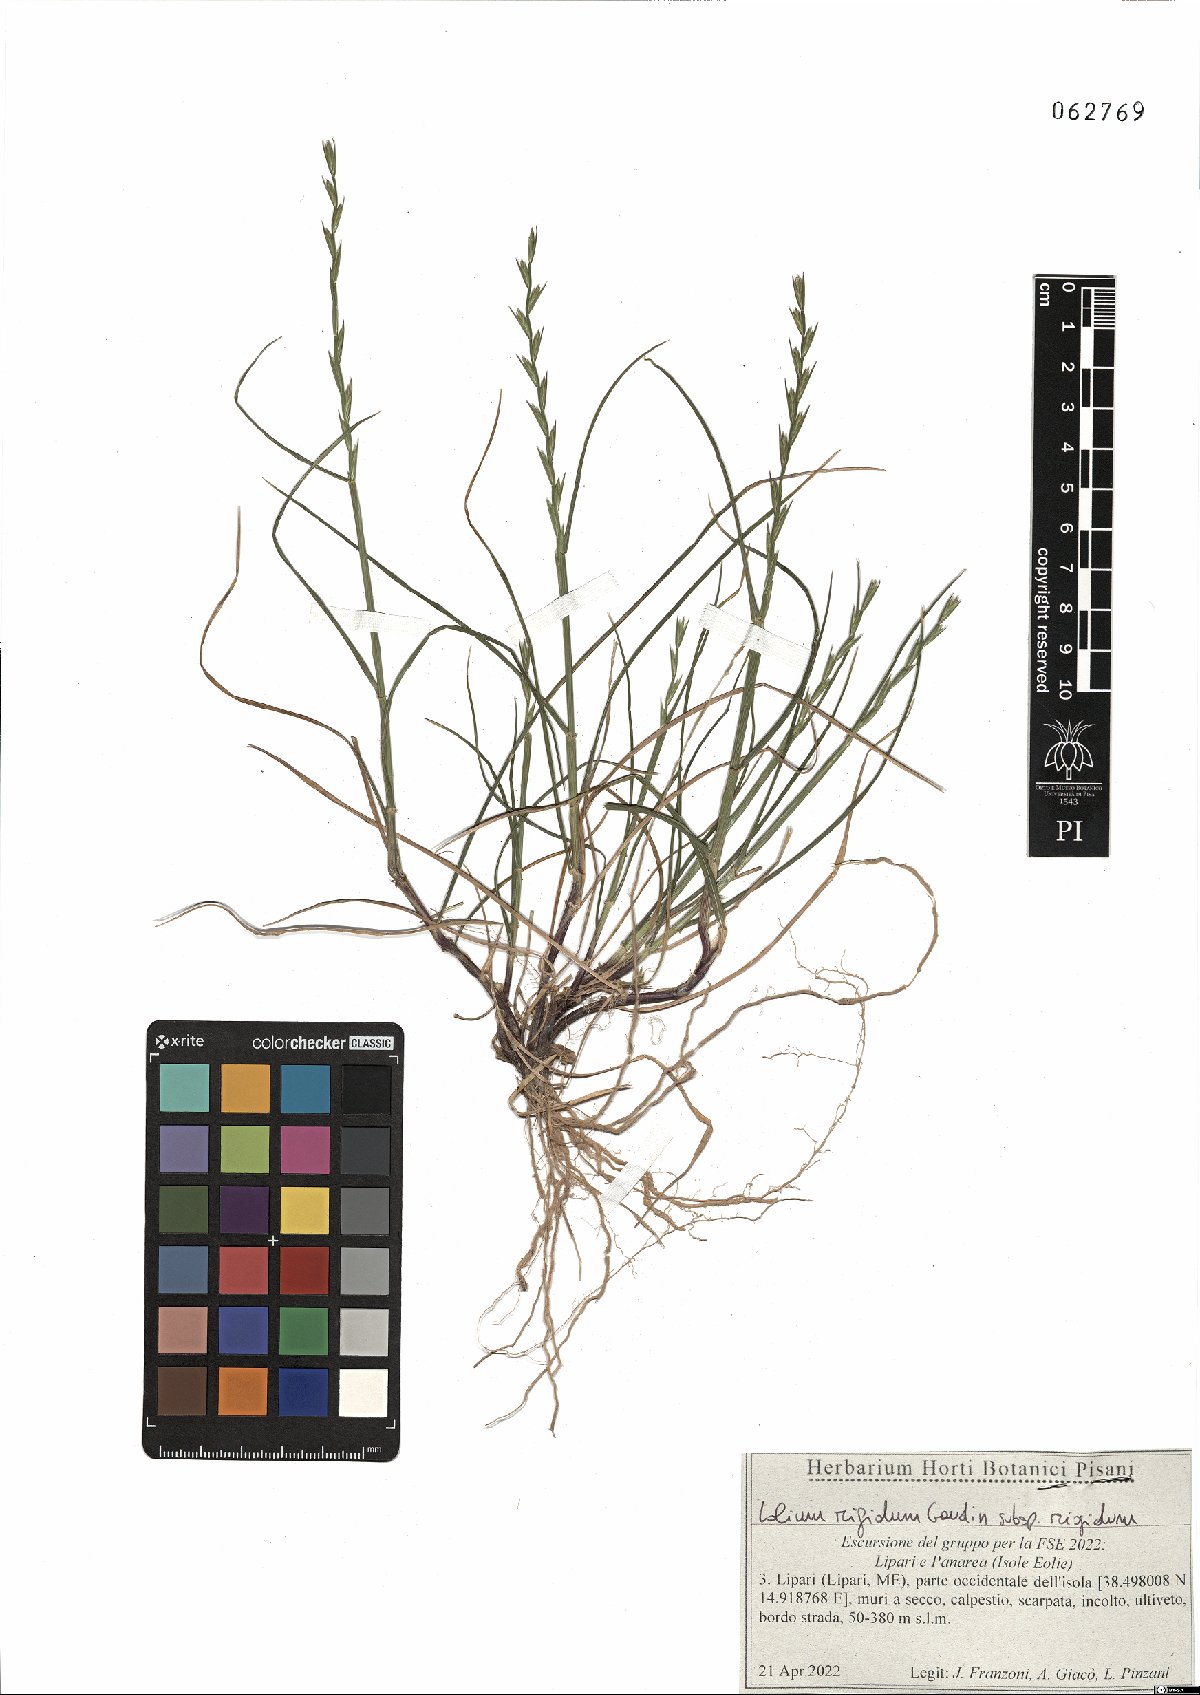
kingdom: Plantae
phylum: Tracheophyta
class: Liliopsida
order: Poales
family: Poaceae
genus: Lolium
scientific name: Lolium rigidum
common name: Wimmera ryegrass
